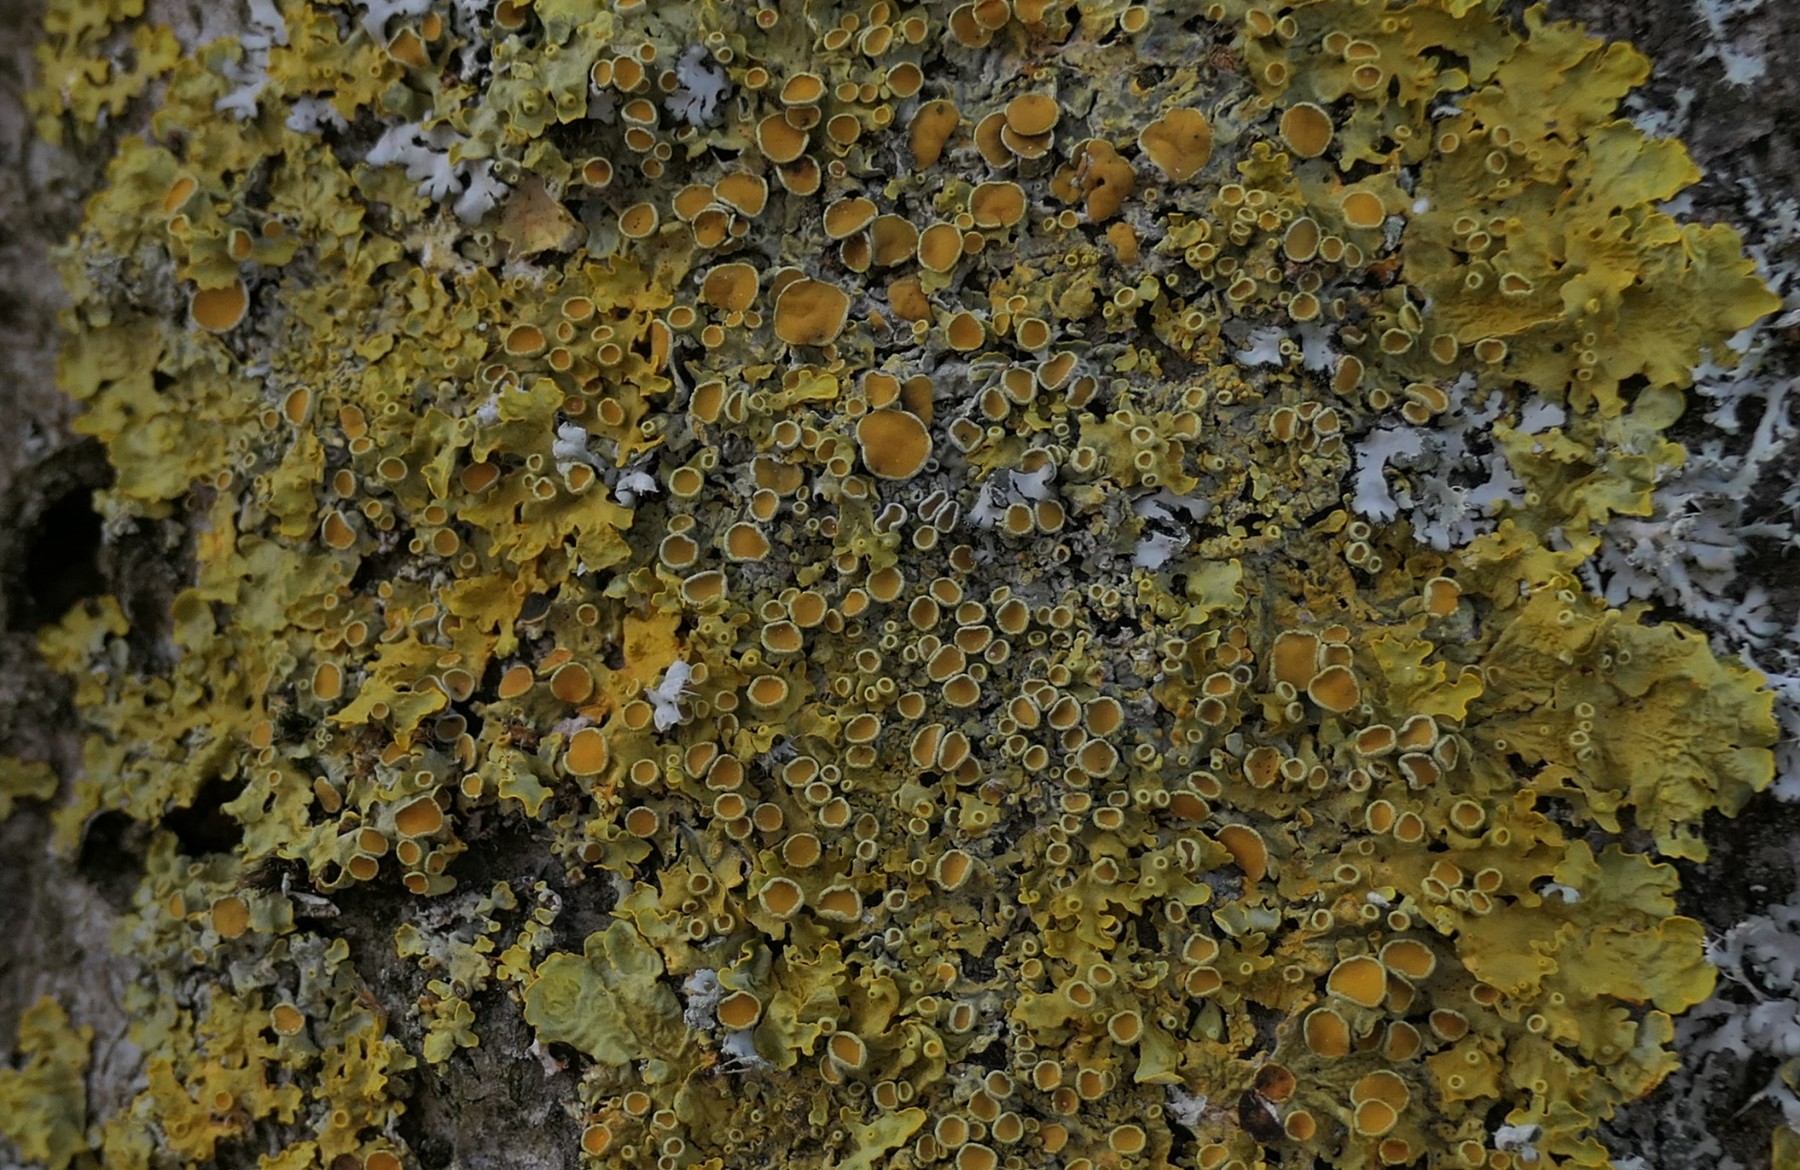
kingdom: Fungi
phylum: Ascomycota
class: Lecanoromycetes
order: Teloschistales
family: Teloschistaceae
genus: Xanthoria
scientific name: Xanthoria parietina
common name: almindelig væggelav
